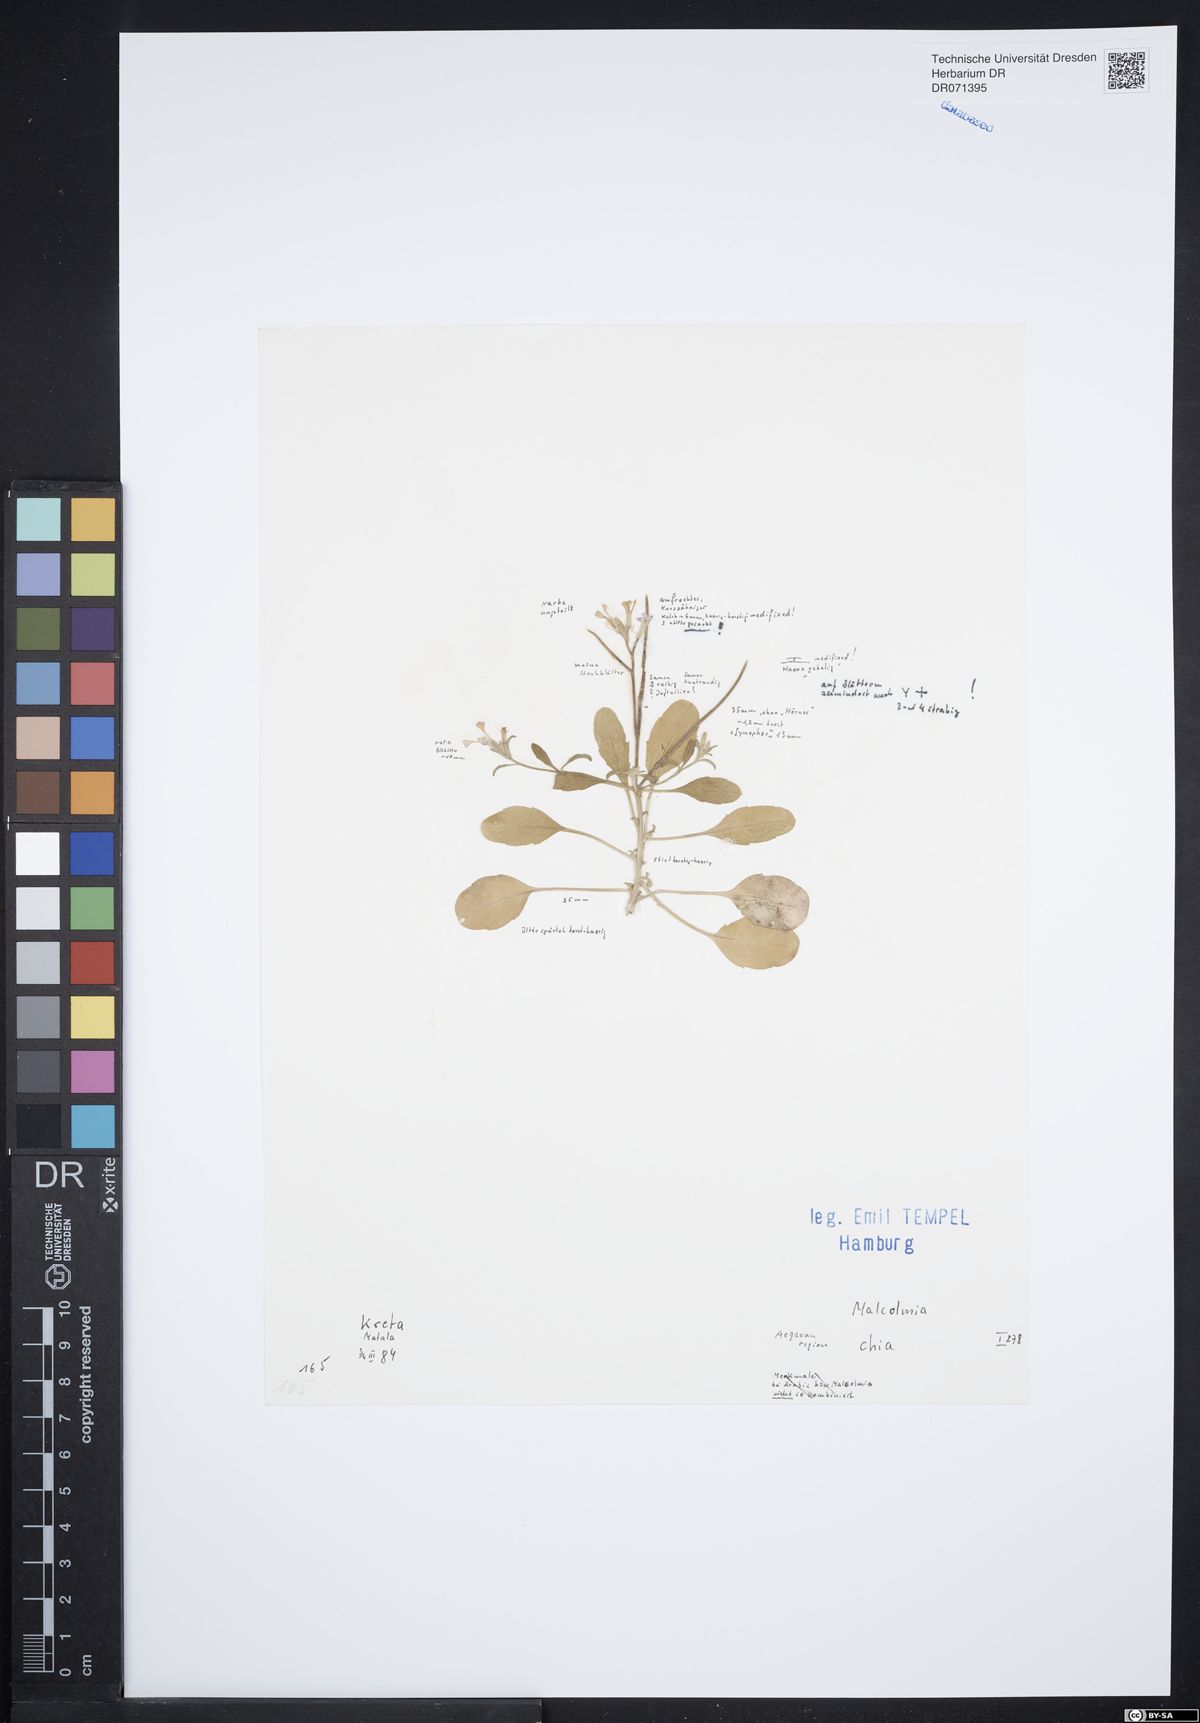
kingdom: Plantae
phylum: Tracheophyta
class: Magnoliopsida
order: Brassicales
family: Brassicaceae
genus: Malcolmia
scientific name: Malcolmia chia
